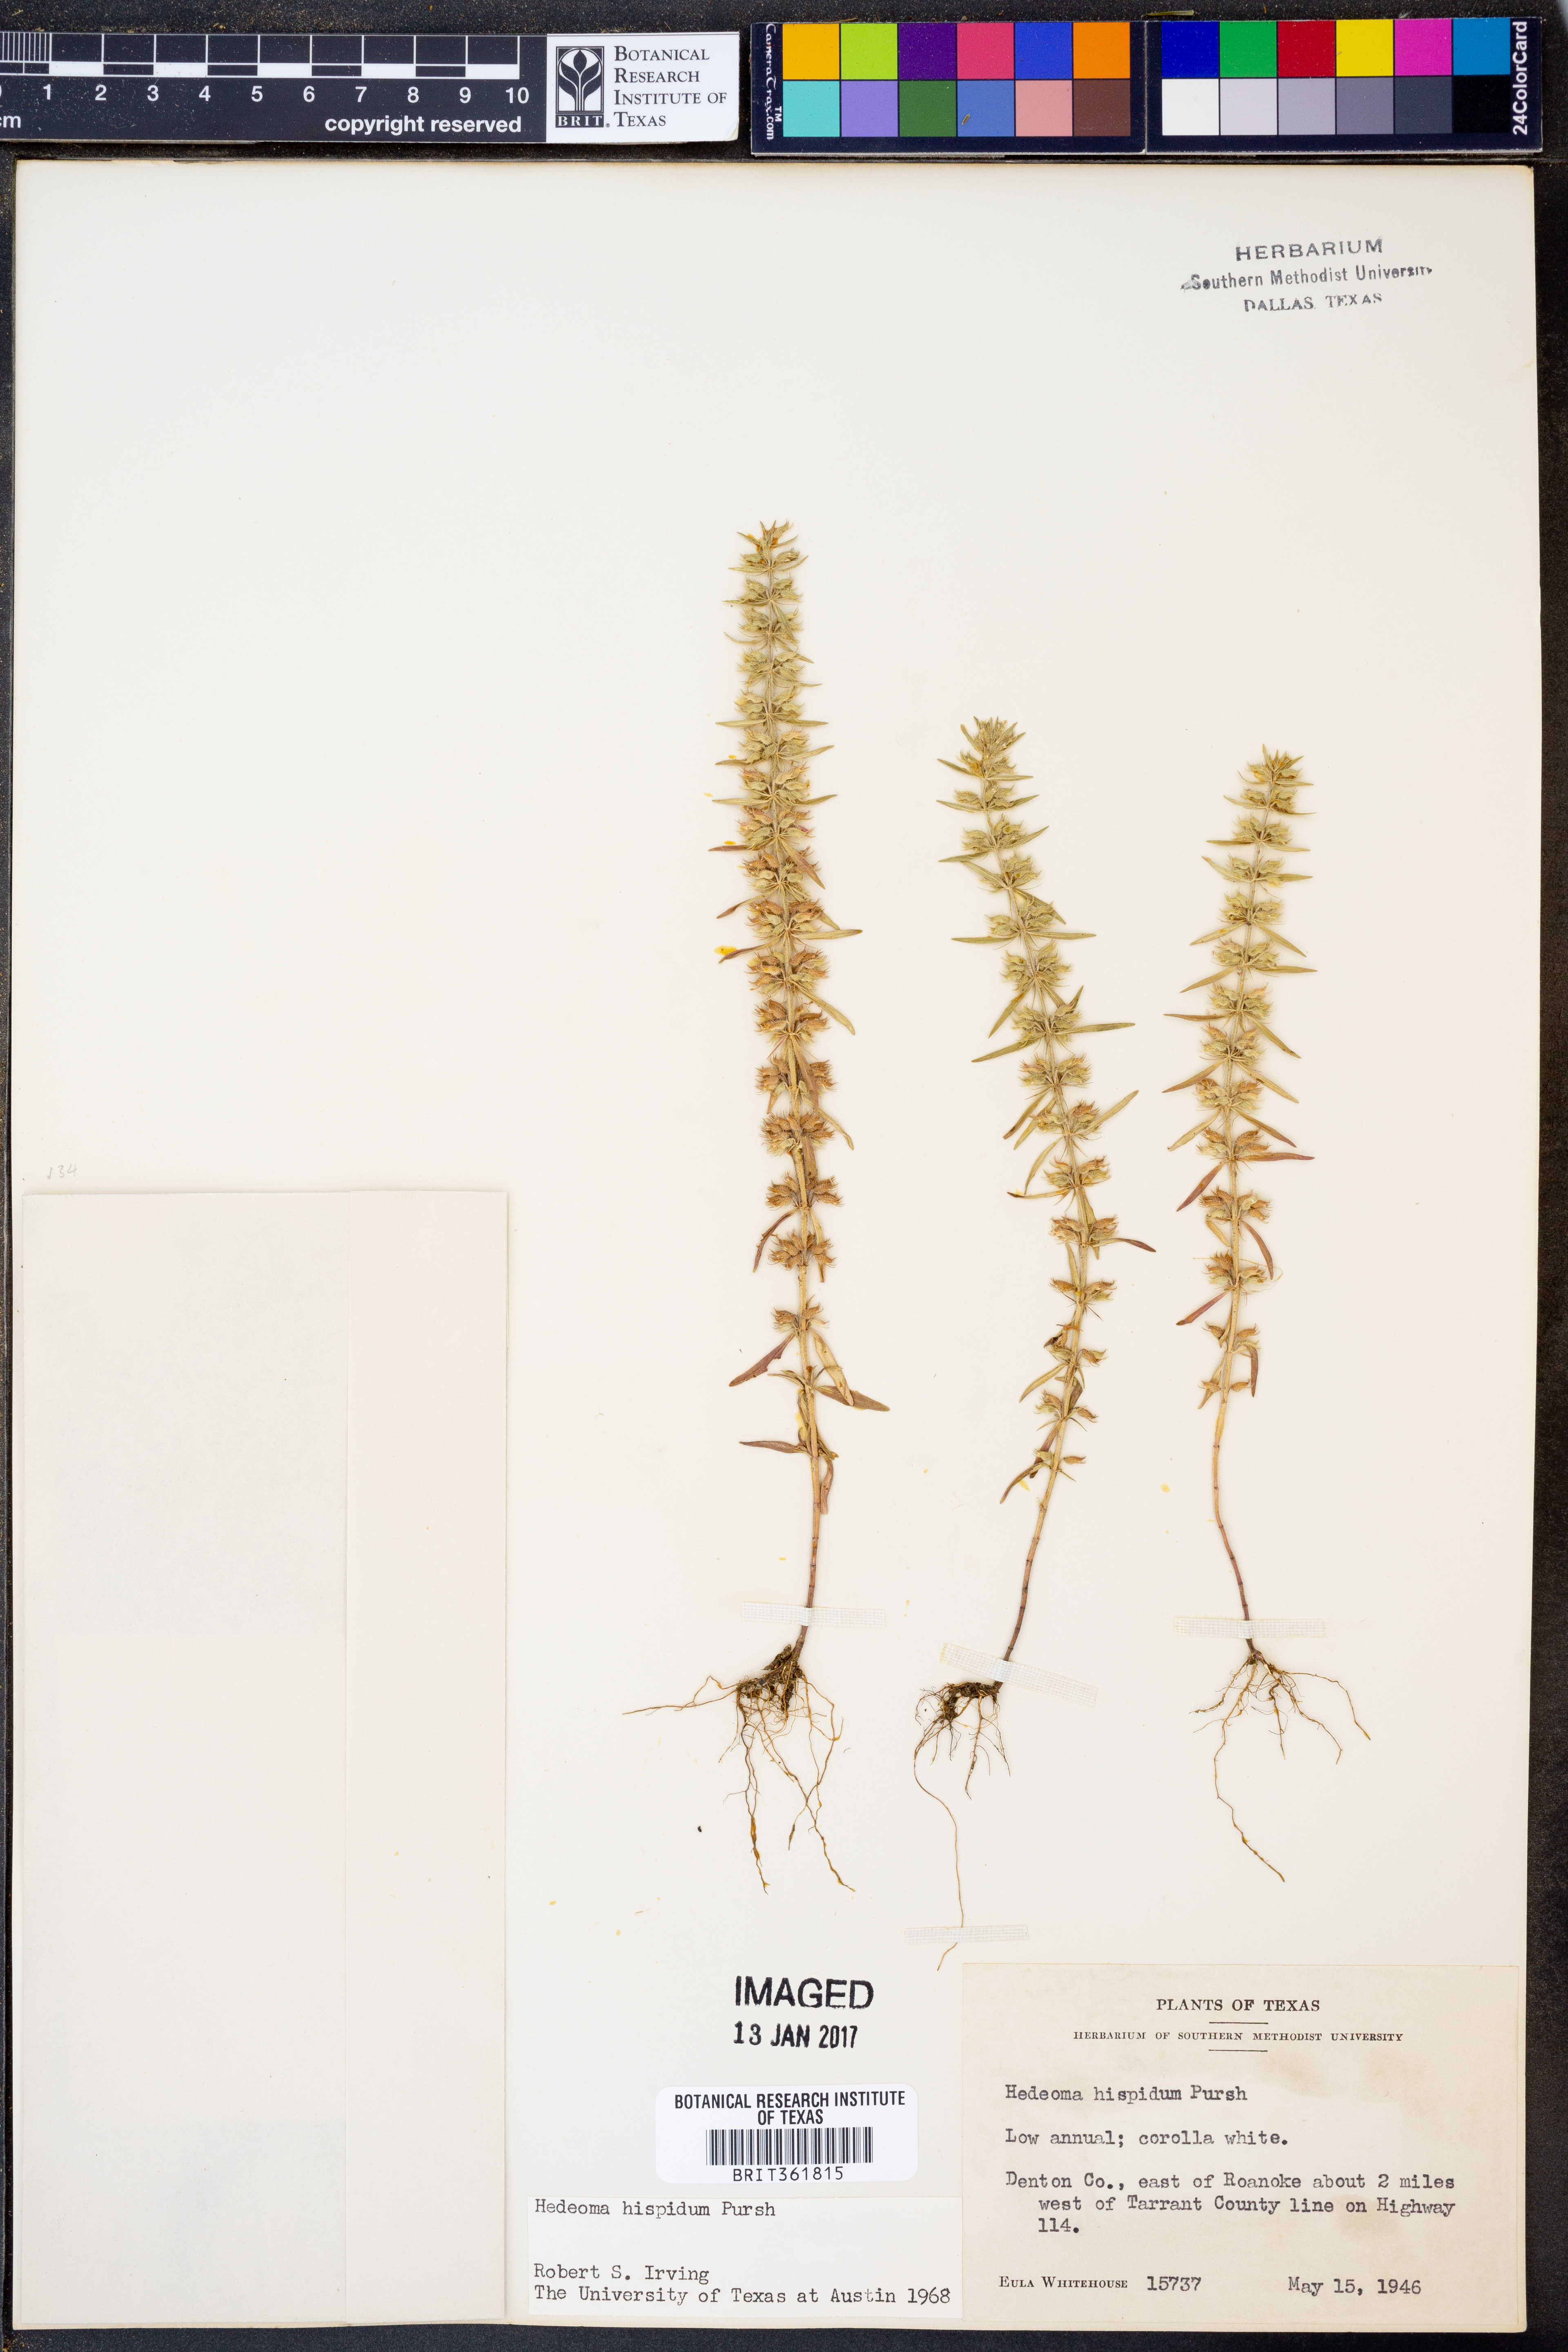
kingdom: Plantae
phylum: Tracheophyta
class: Magnoliopsida
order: Lamiales
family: Lamiaceae
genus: Hedeoma
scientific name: Hedeoma hispida
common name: Mock pennyroyal
